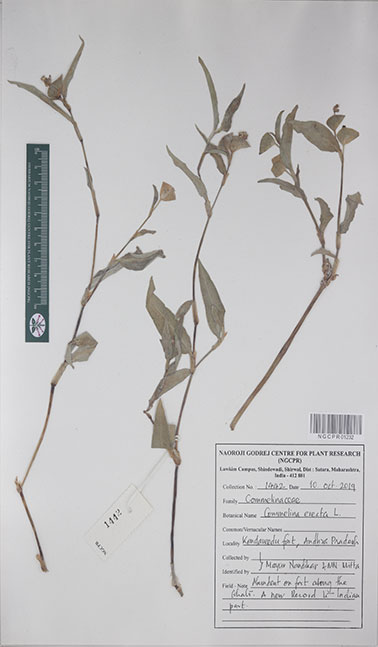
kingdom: Plantae
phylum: Tracheophyta
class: Liliopsida
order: Commelinales
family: Commelinaceae
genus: Commelina
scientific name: Commelina erecta
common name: Blousel blommetjie
